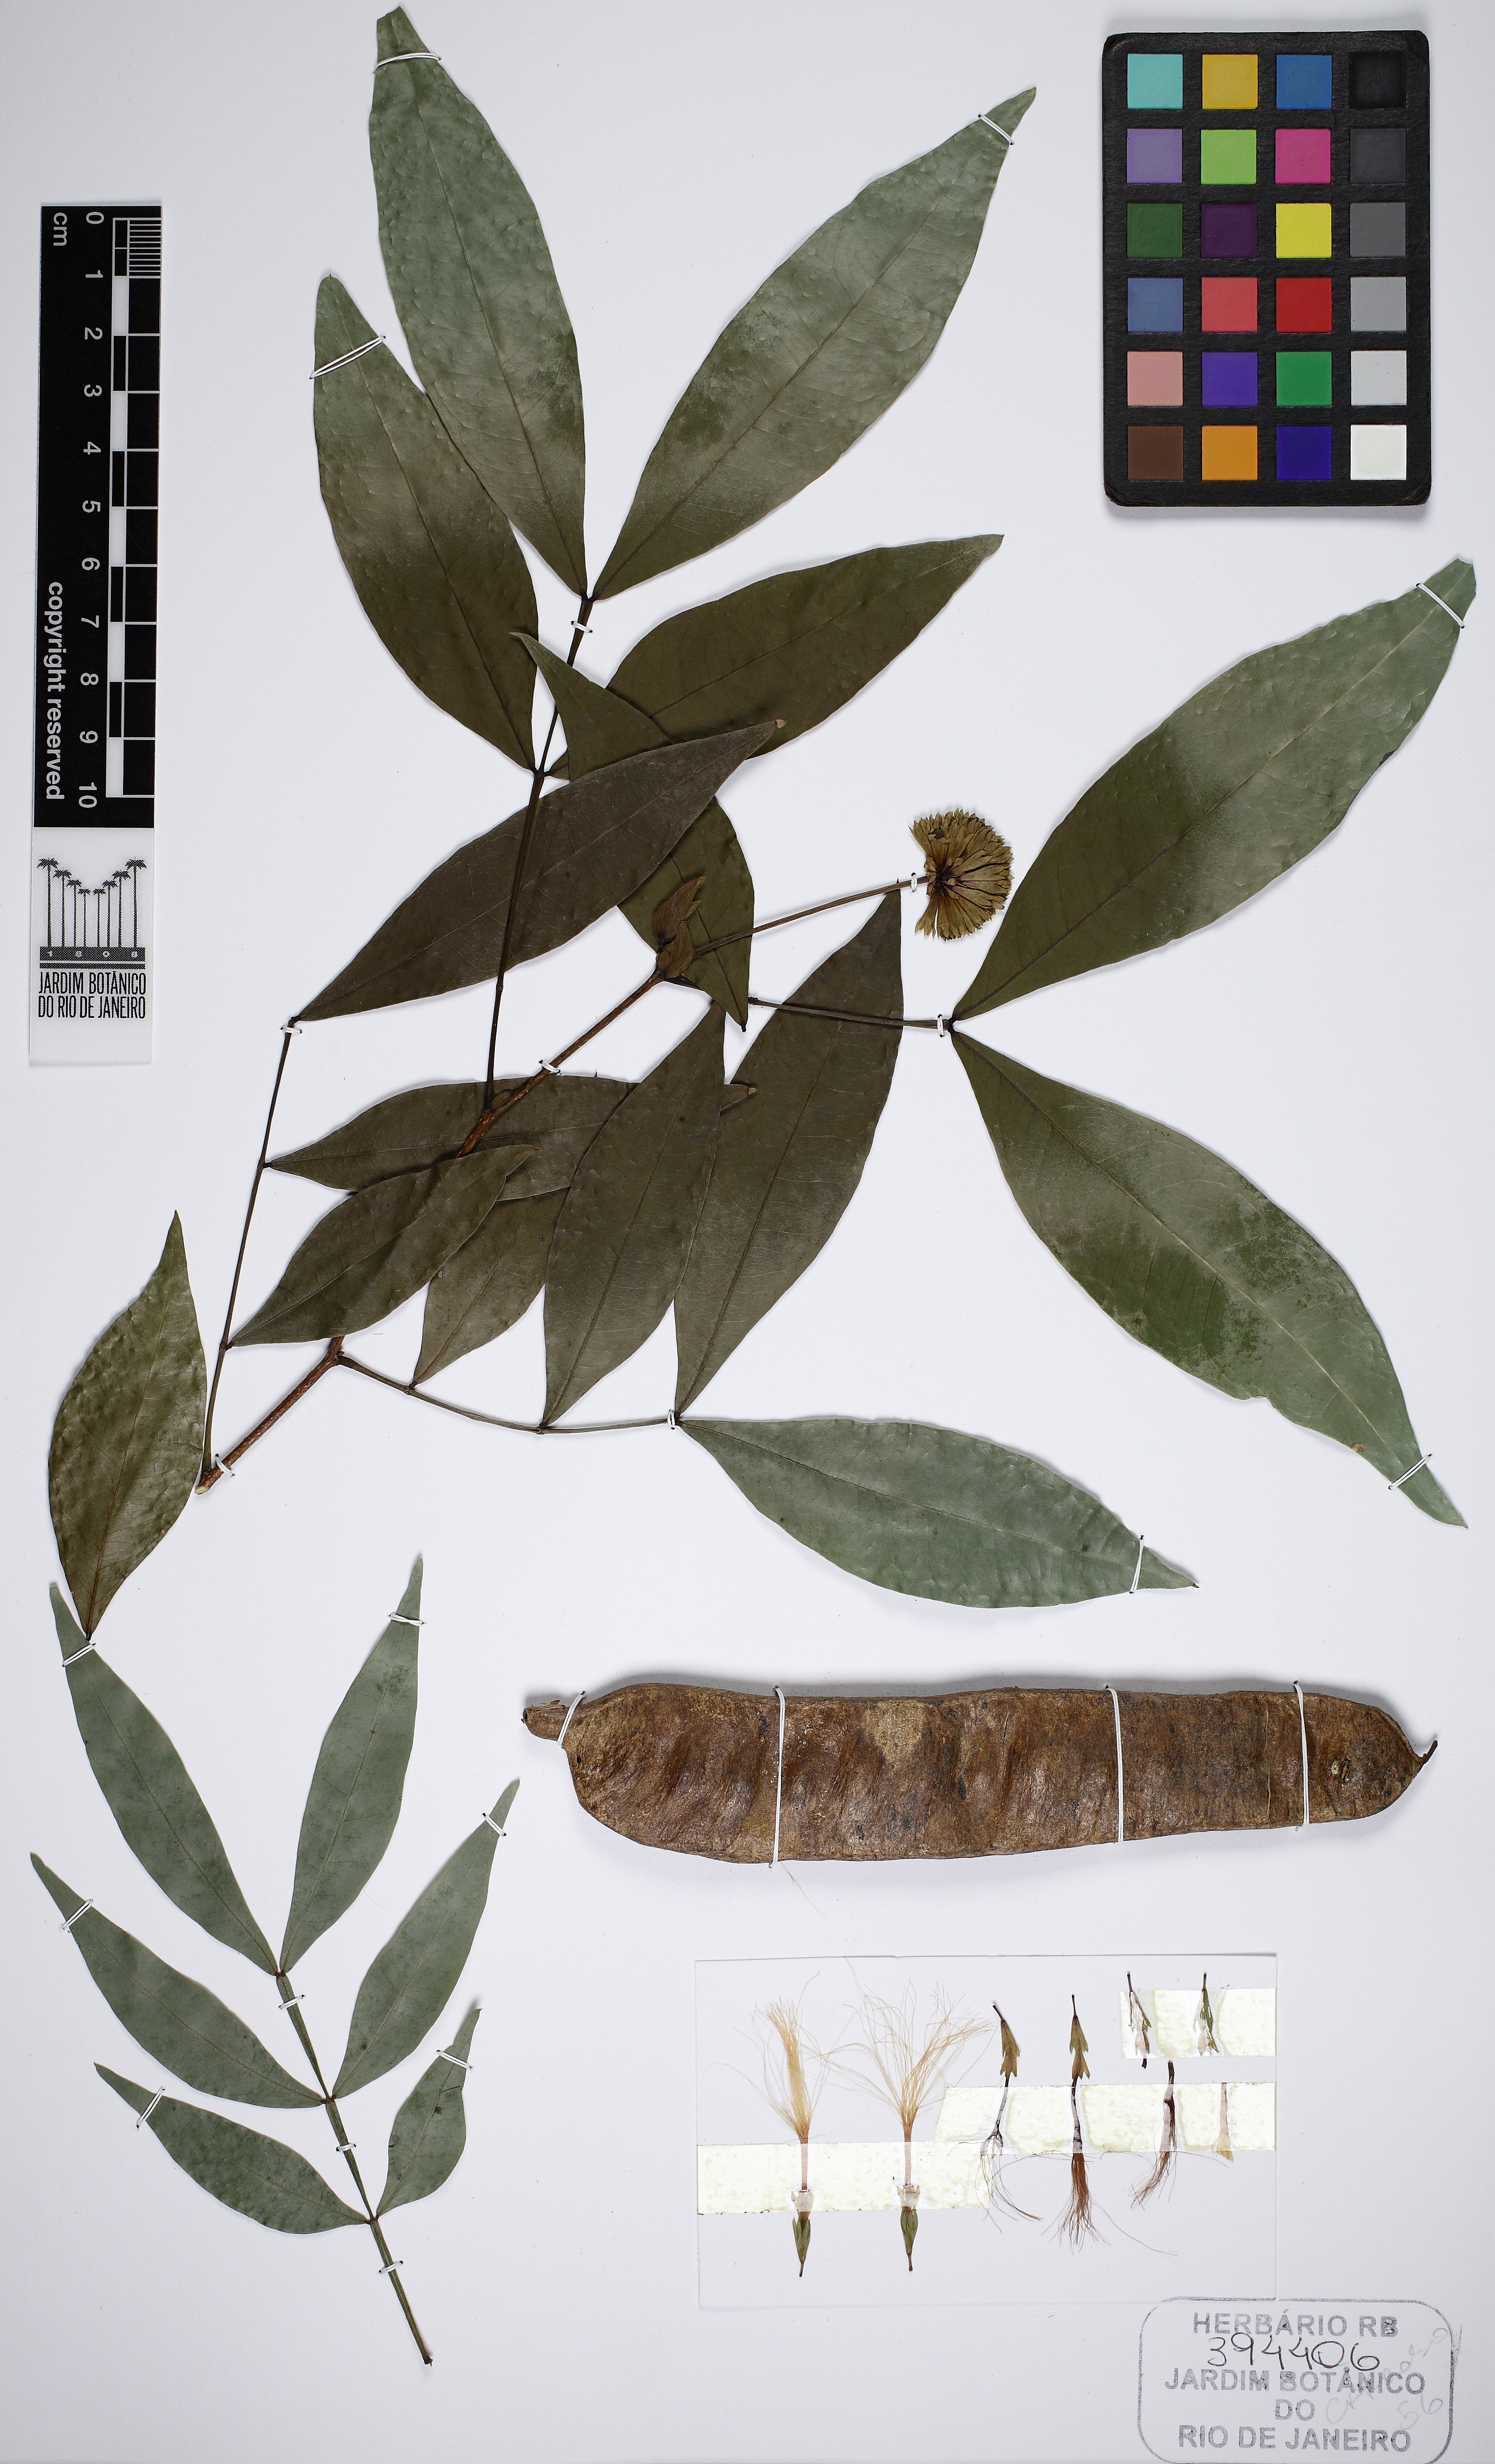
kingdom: Plantae
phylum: Tracheophyta
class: Magnoliopsida
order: Fabales
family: Fabaceae
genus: Inga
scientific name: Inga cordistipula
